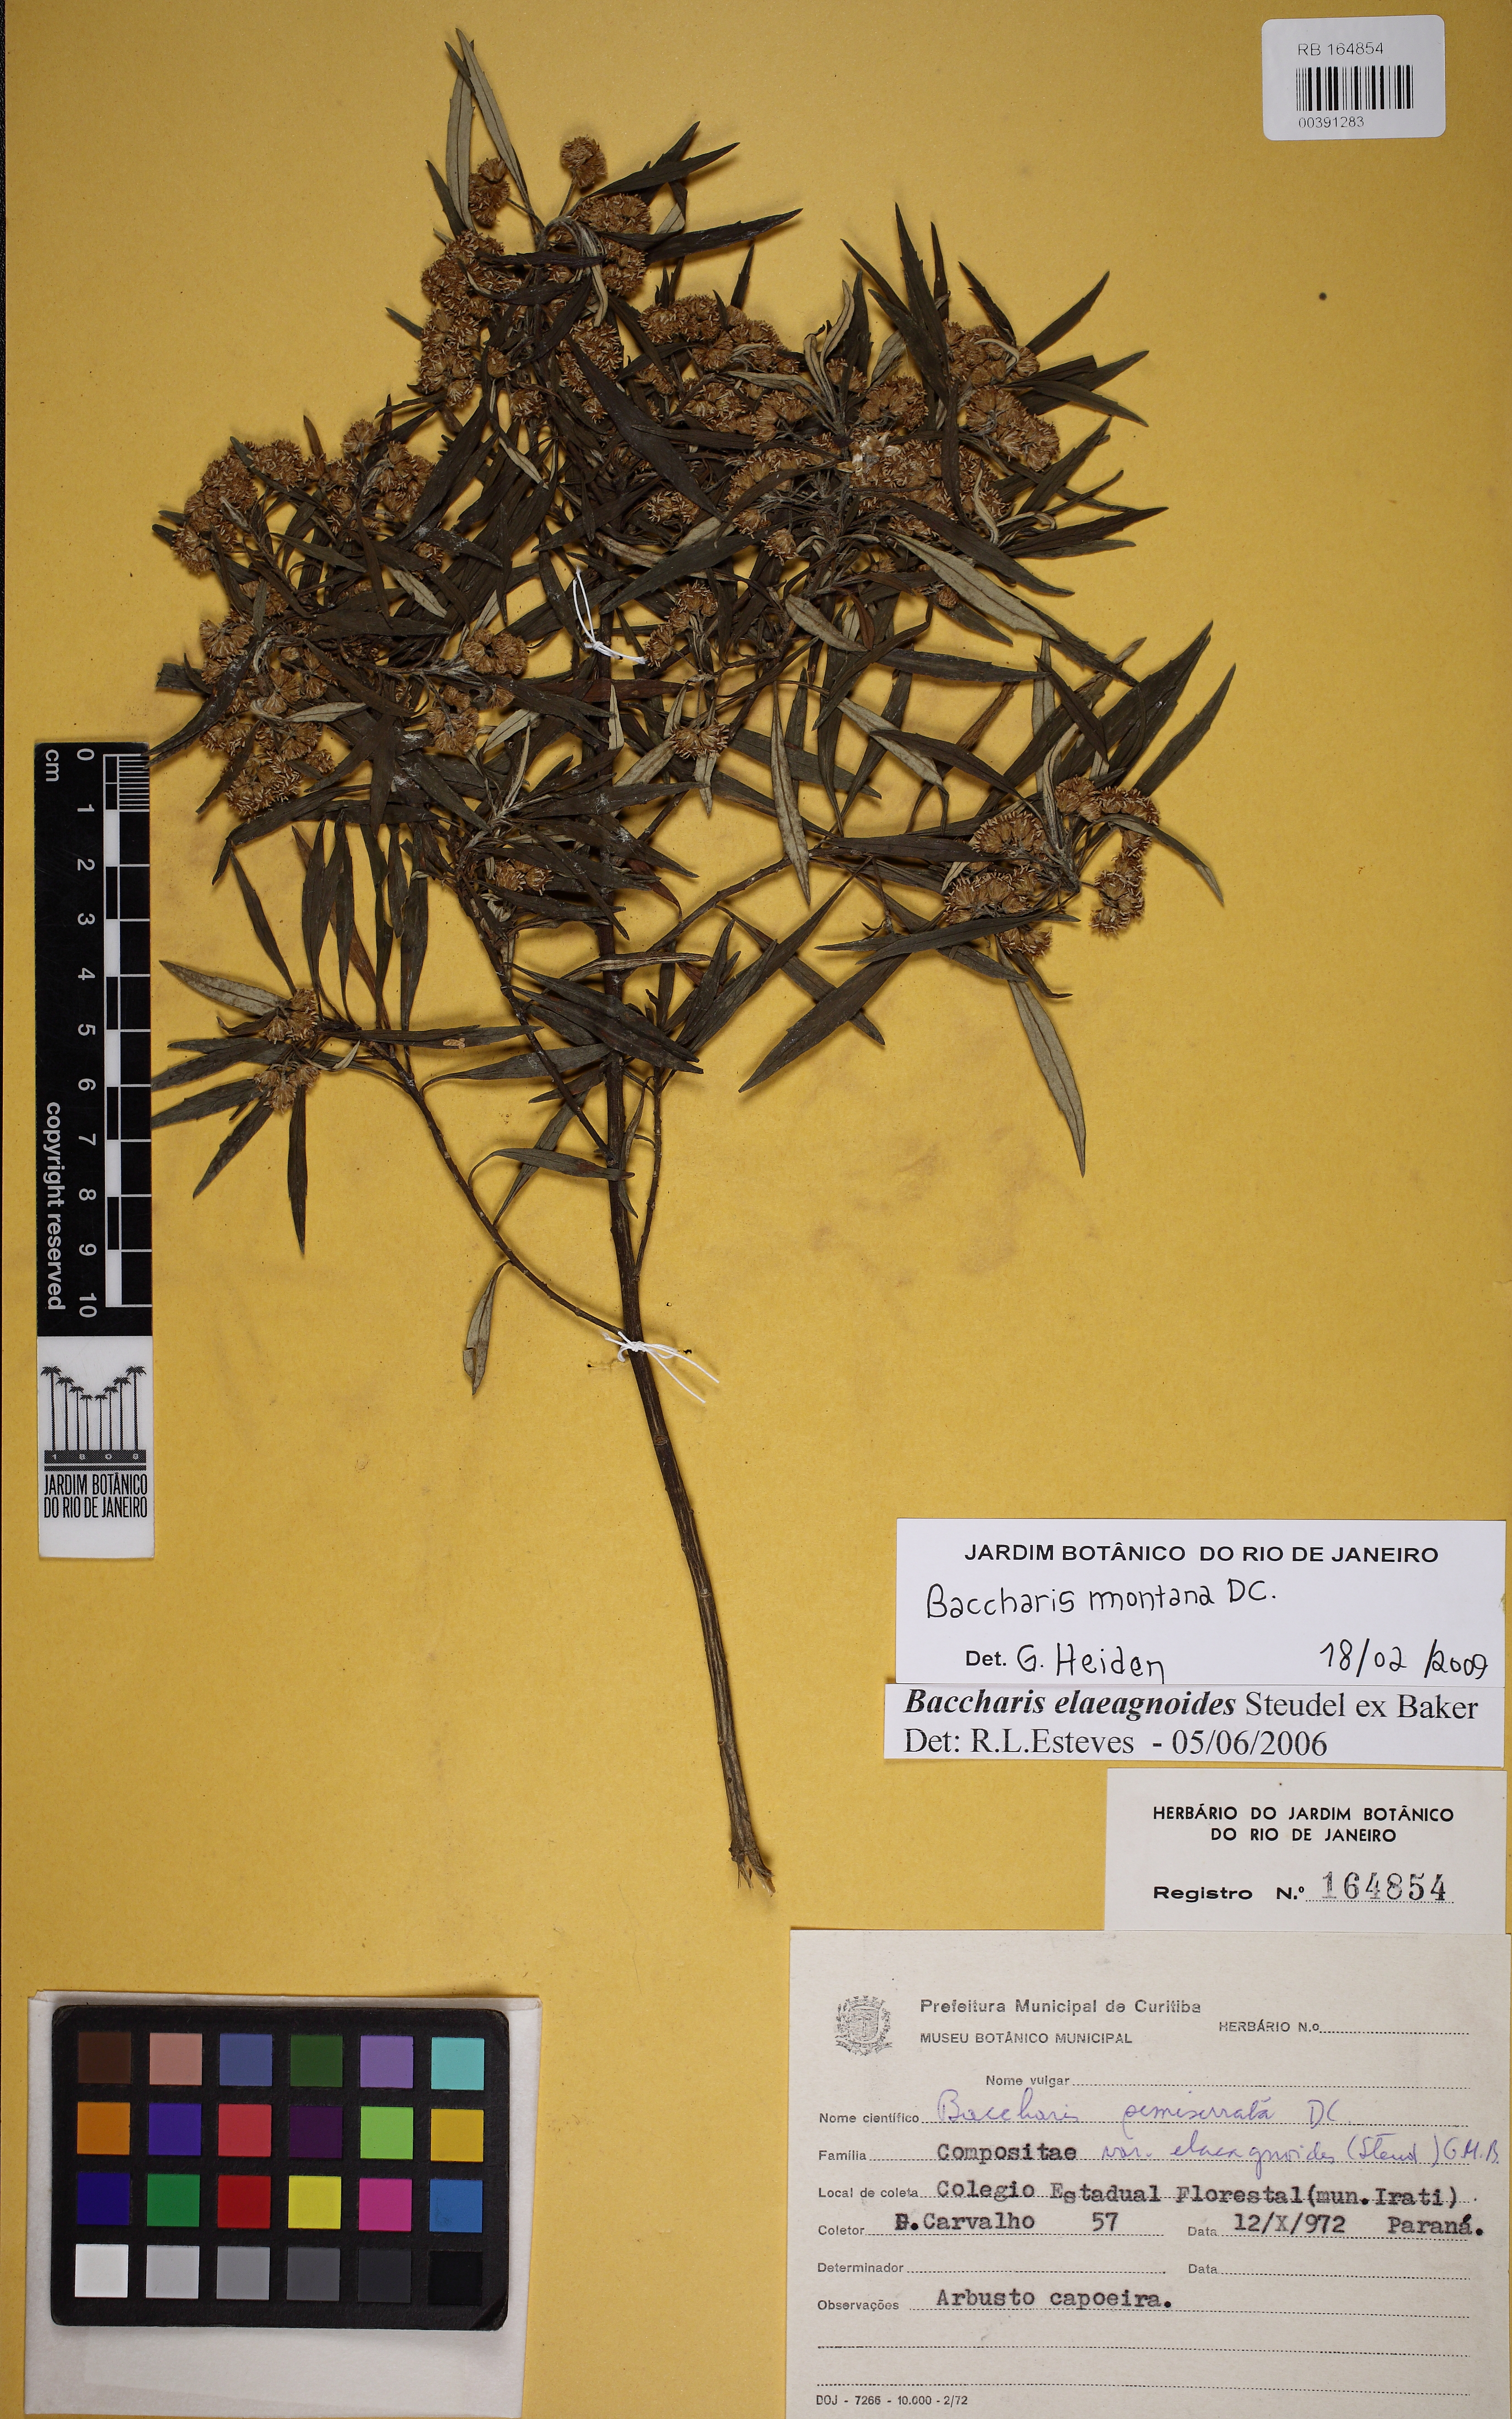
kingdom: Plantae
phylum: Tracheophyta
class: Magnoliopsida
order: Asterales
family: Asteraceae
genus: Baccharis
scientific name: Baccharis montana
